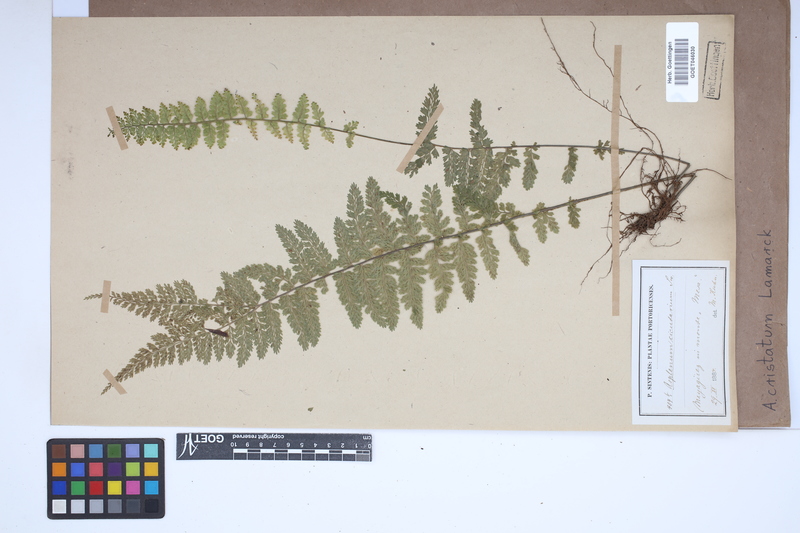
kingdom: Plantae
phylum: Tracheophyta
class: Polypodiopsida
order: Polypodiales
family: Aspleniaceae
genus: Asplenium
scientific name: Asplenium cristatum
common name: Parsley spleenwort
